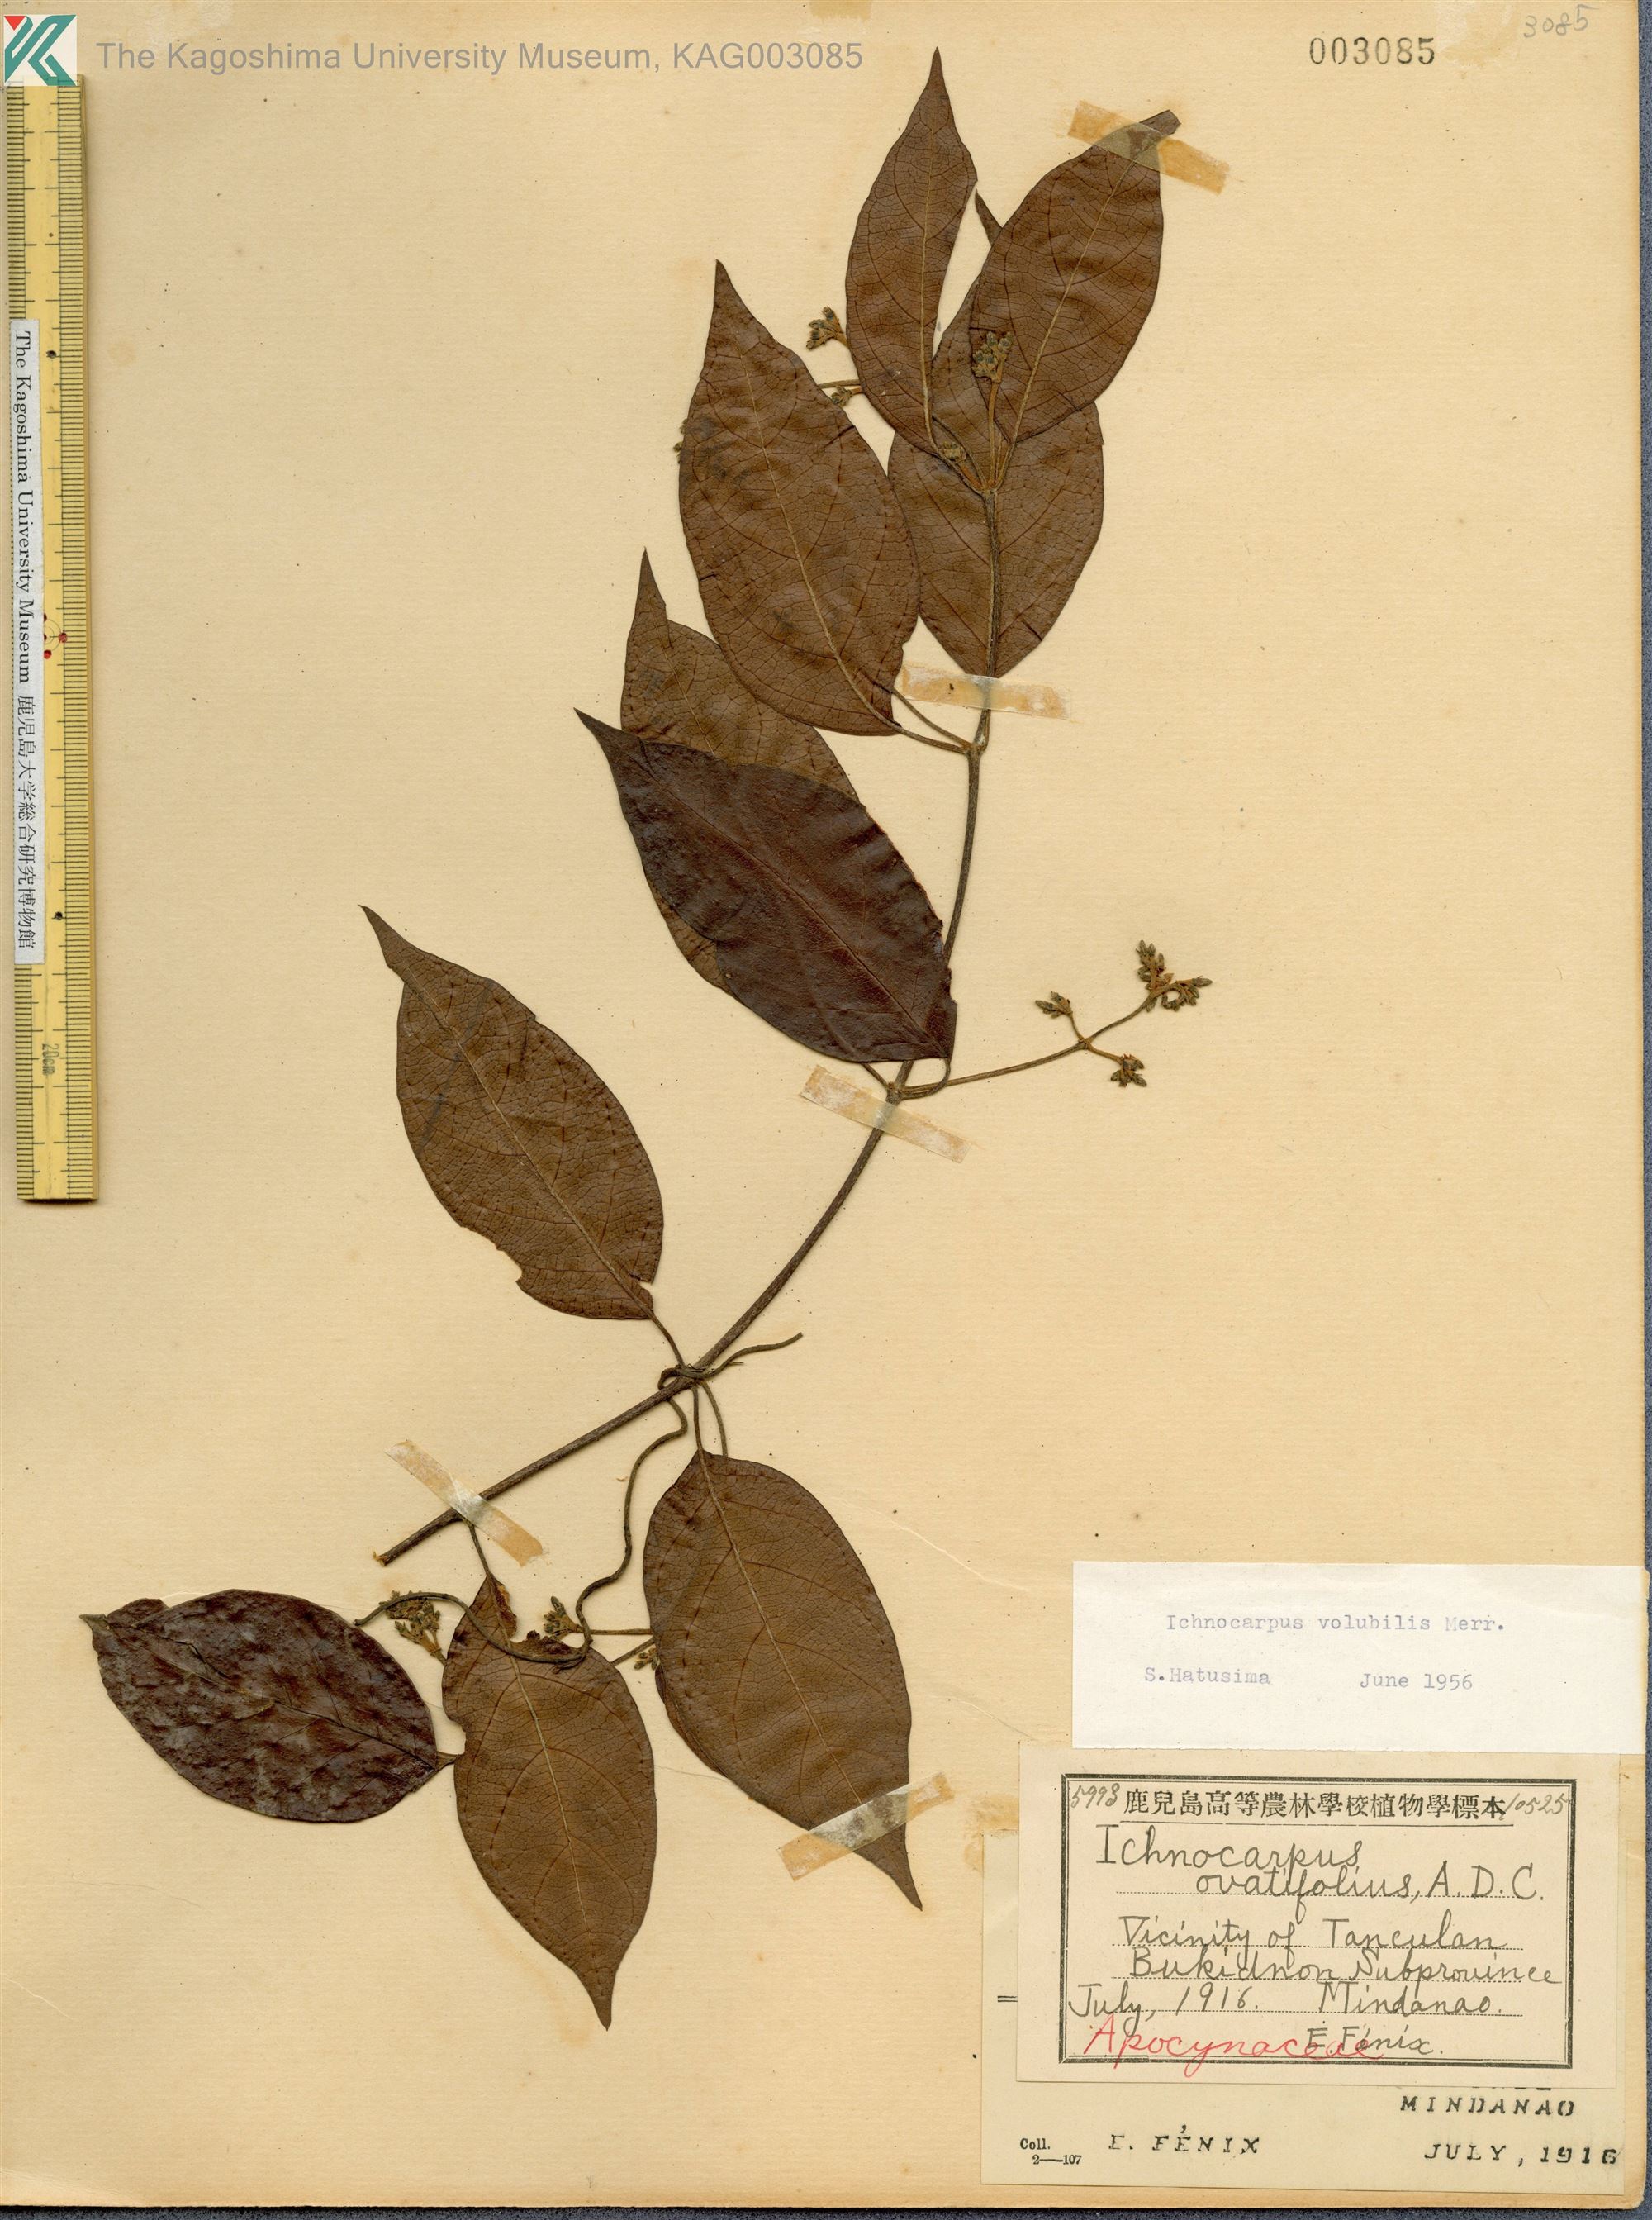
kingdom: Plantae
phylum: Tracheophyta
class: Magnoliopsida
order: Gentianales
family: Apocynaceae
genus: Ichnocarpus
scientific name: Ichnocarpus frutescens
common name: Ichnocarpus
